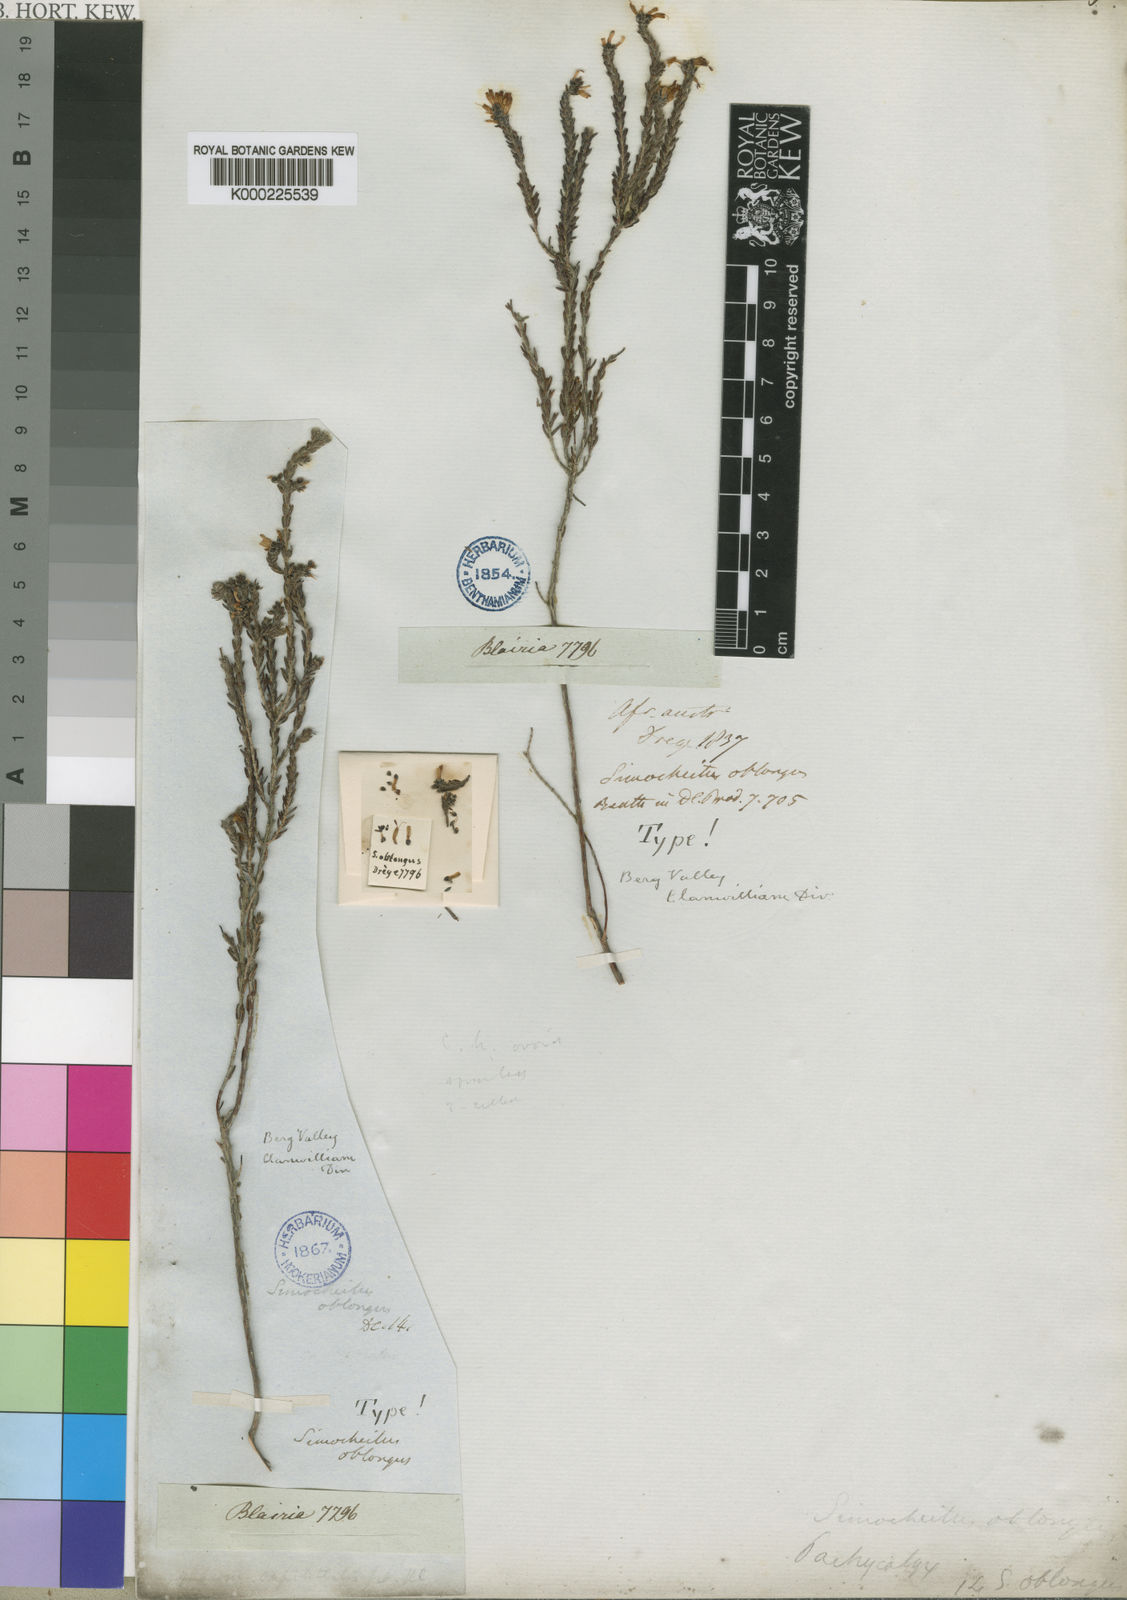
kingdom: Plantae
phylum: Tracheophyta
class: Magnoliopsida
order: Ericales
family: Ericaceae
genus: Erica
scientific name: Erica dregei
